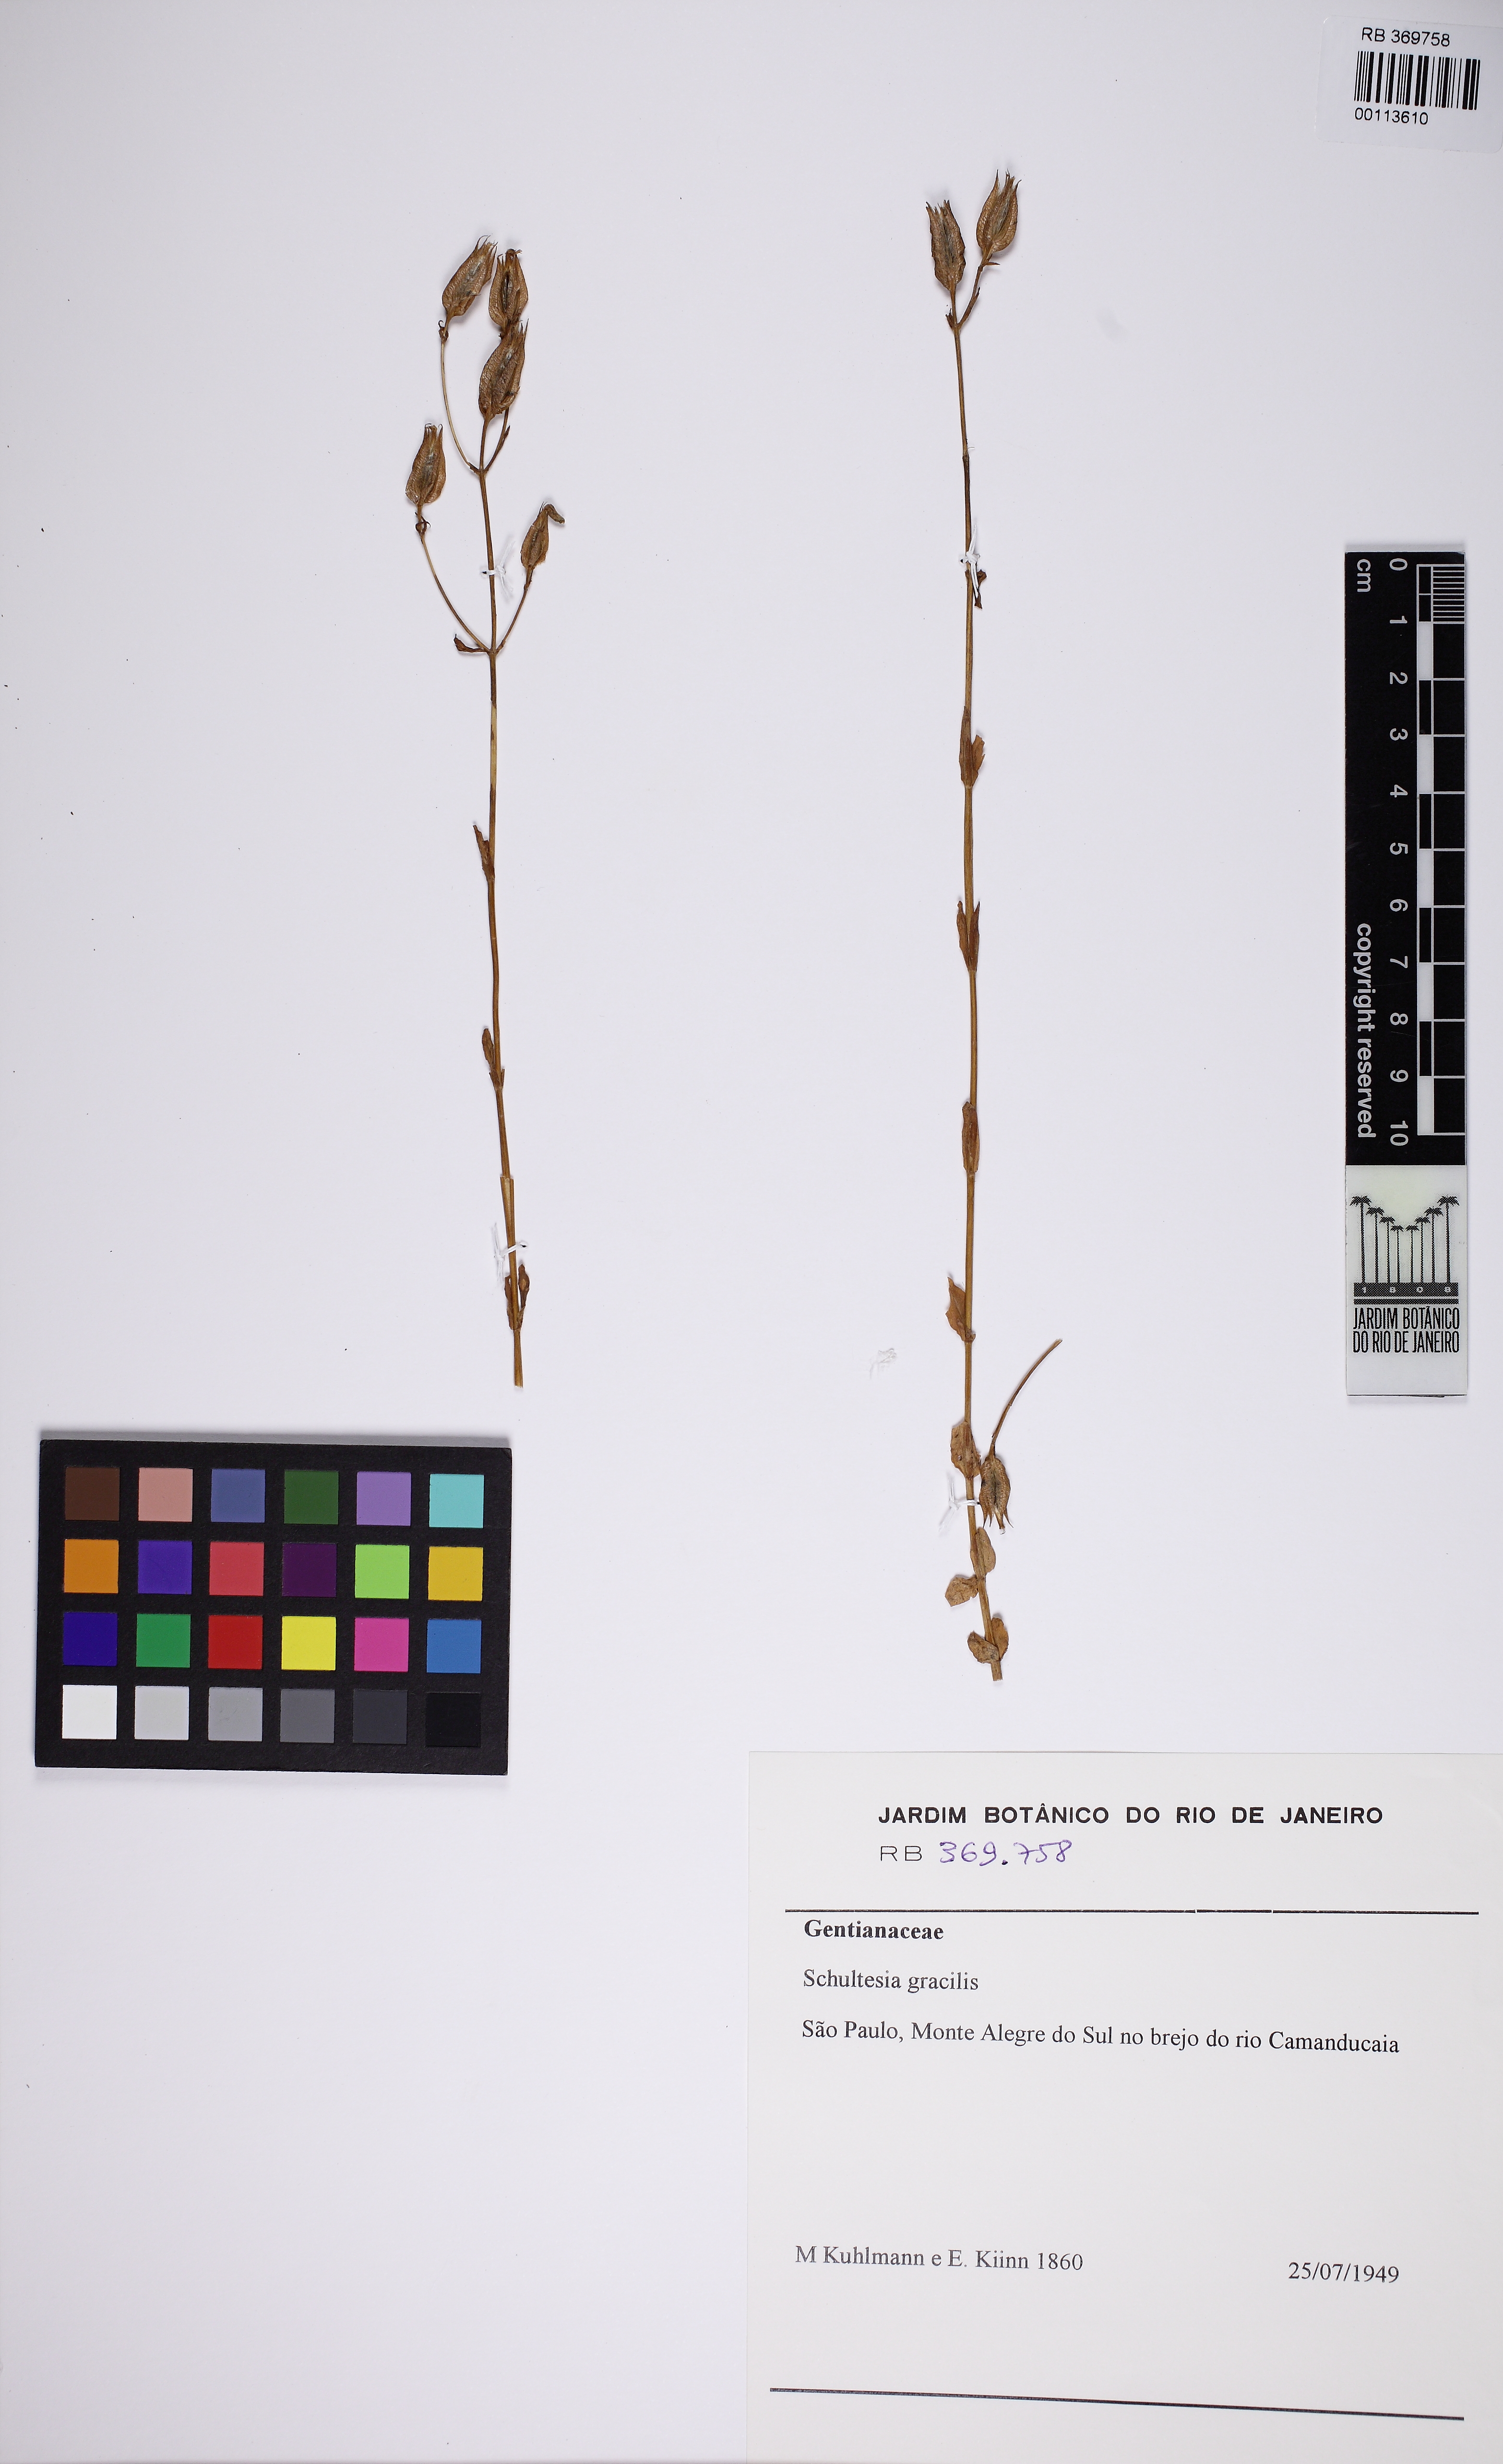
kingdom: Plantae
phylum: Tracheophyta
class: Magnoliopsida
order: Gentianales
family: Gentianaceae
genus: Schultesia
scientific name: Schultesia gracilis
